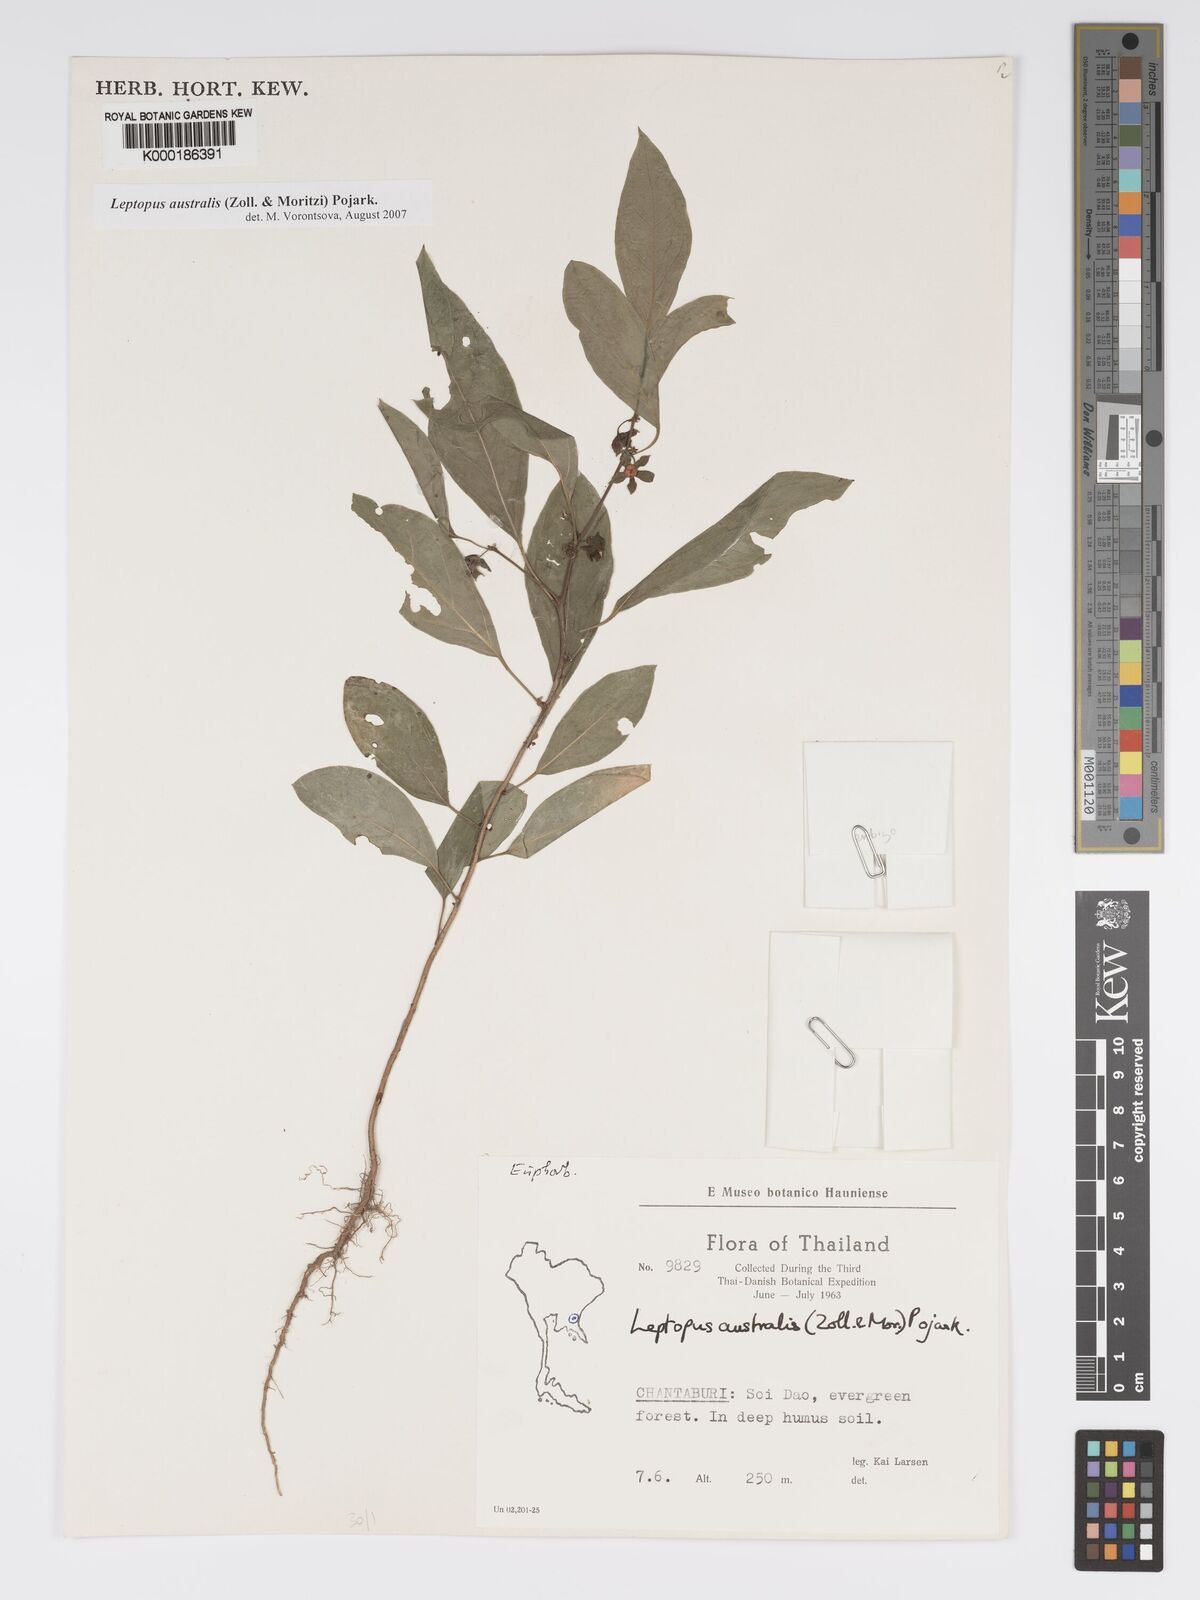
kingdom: Plantae
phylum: Tracheophyta
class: Magnoliopsida
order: Malpighiales
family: Phyllanthaceae
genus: Andrachne
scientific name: Andrachne
